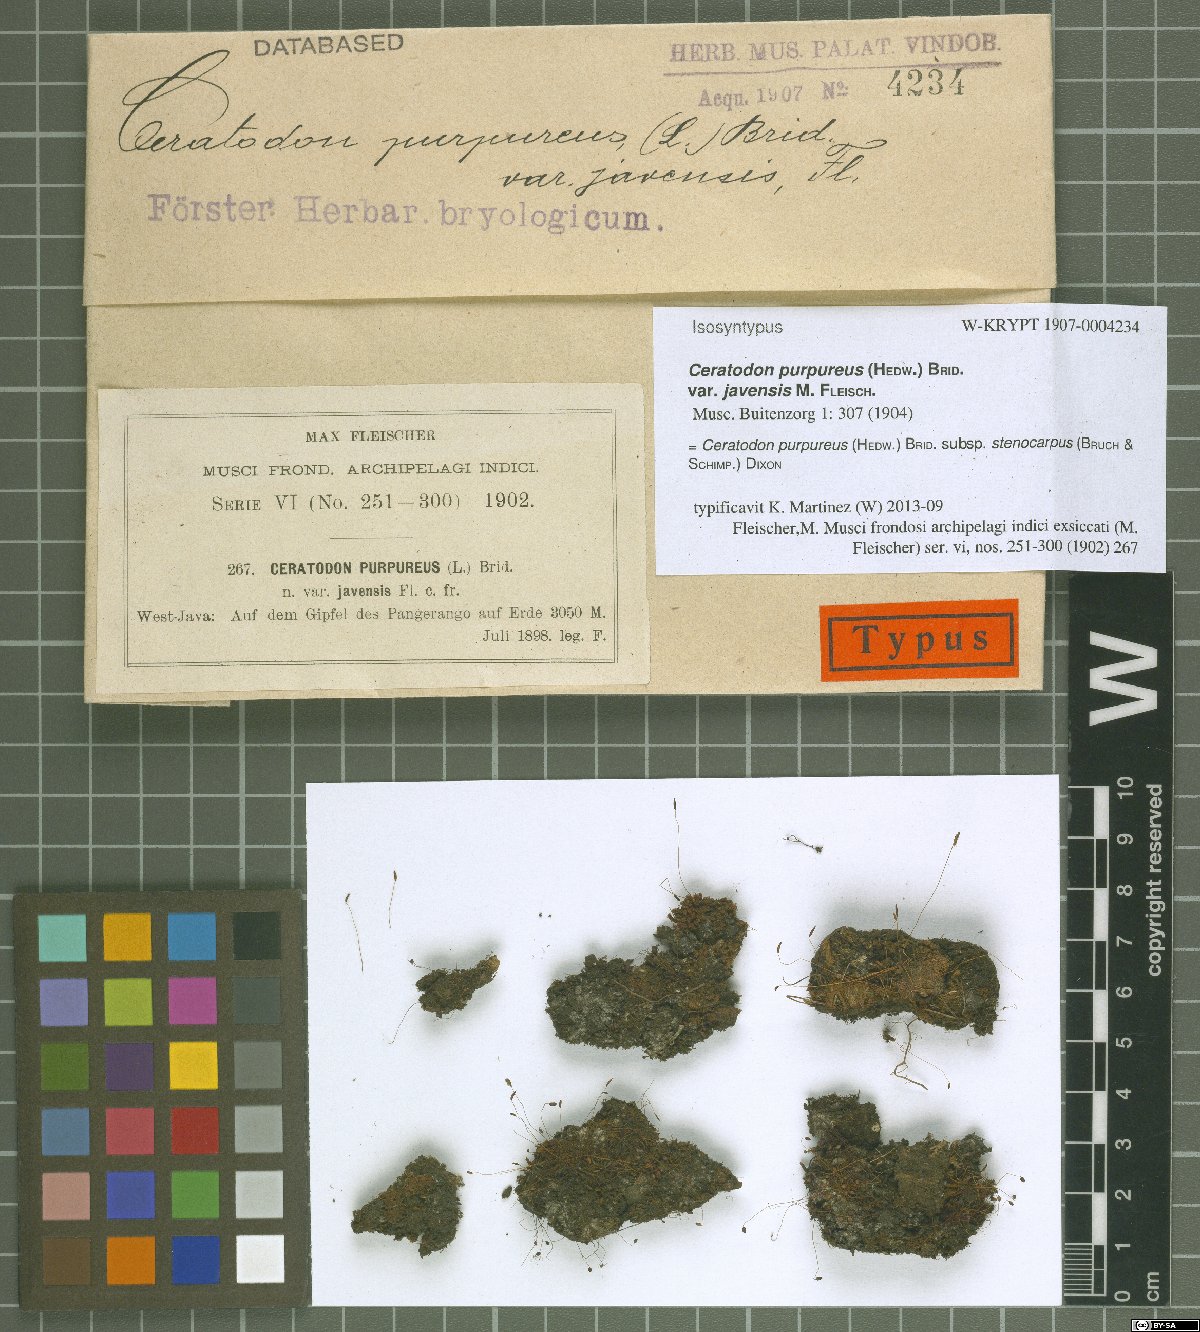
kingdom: Plantae
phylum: Bryophyta
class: Bryopsida
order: Dicranales
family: Ditrichaceae
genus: Ceratodon
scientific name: Ceratodon purpureus
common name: Redshank
